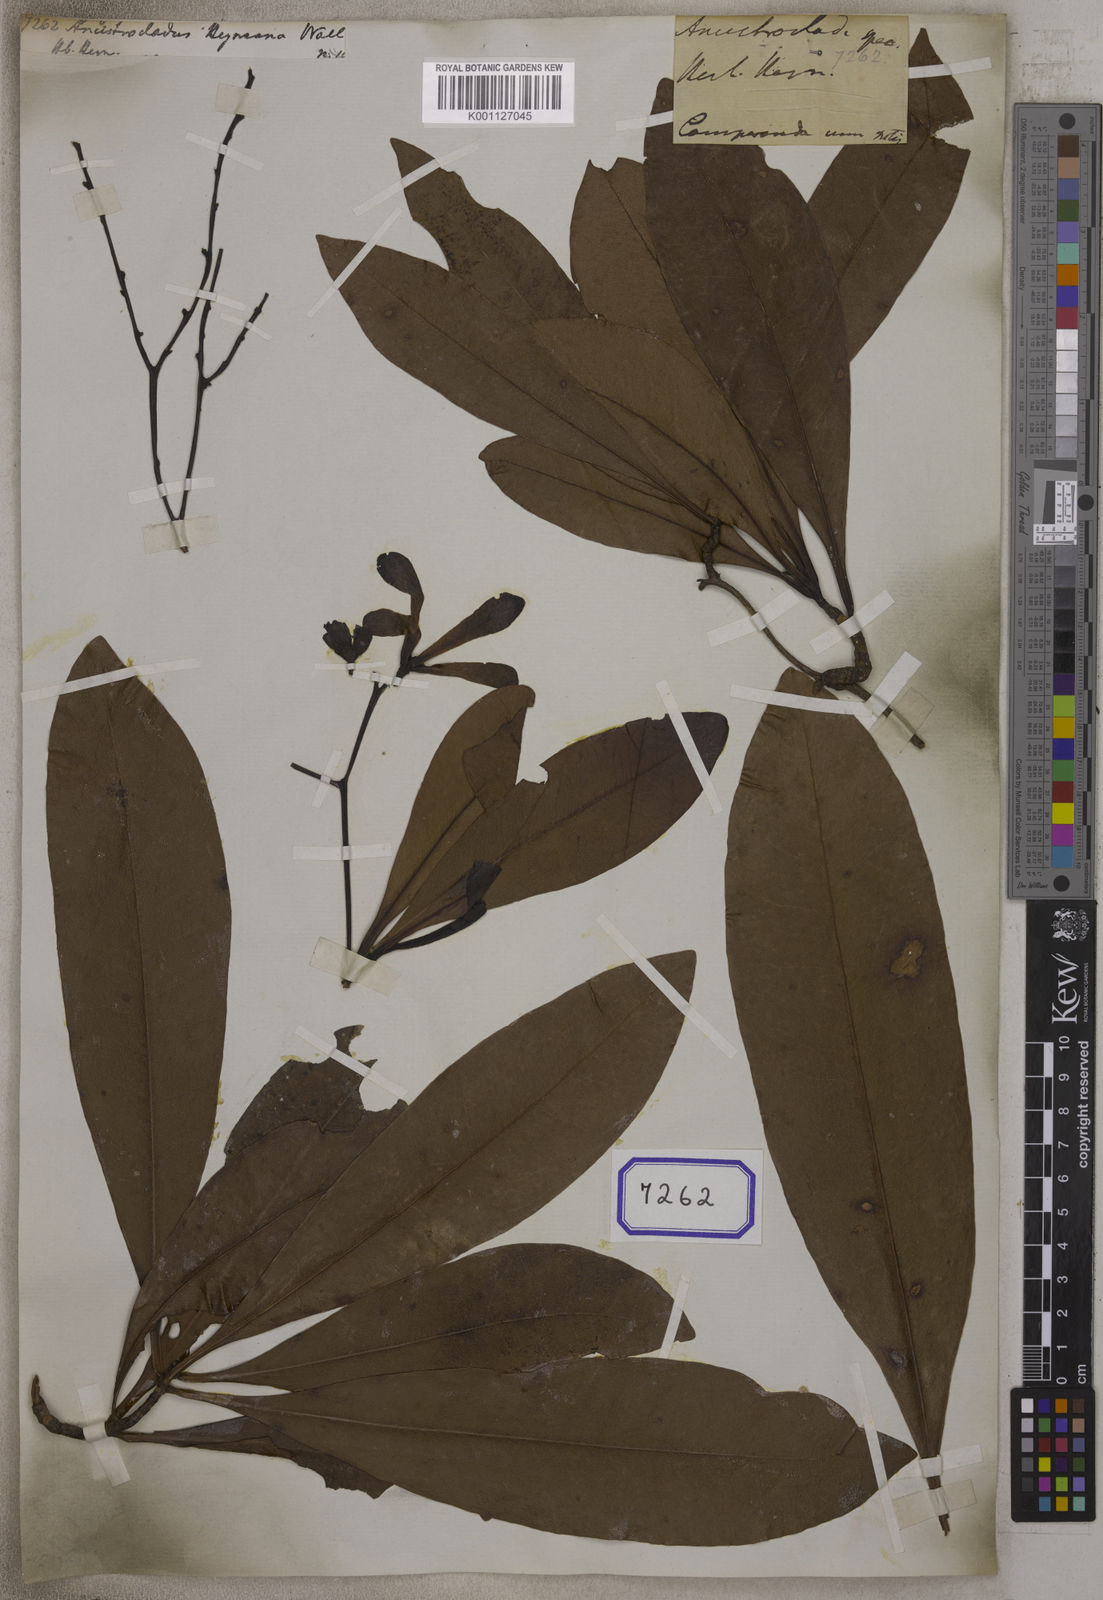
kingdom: Plantae
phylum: Tracheophyta
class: Magnoliopsida
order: Caryophyllales
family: Ancistrocladaceae
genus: Ancistrocladus
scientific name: Ancistrocladus
